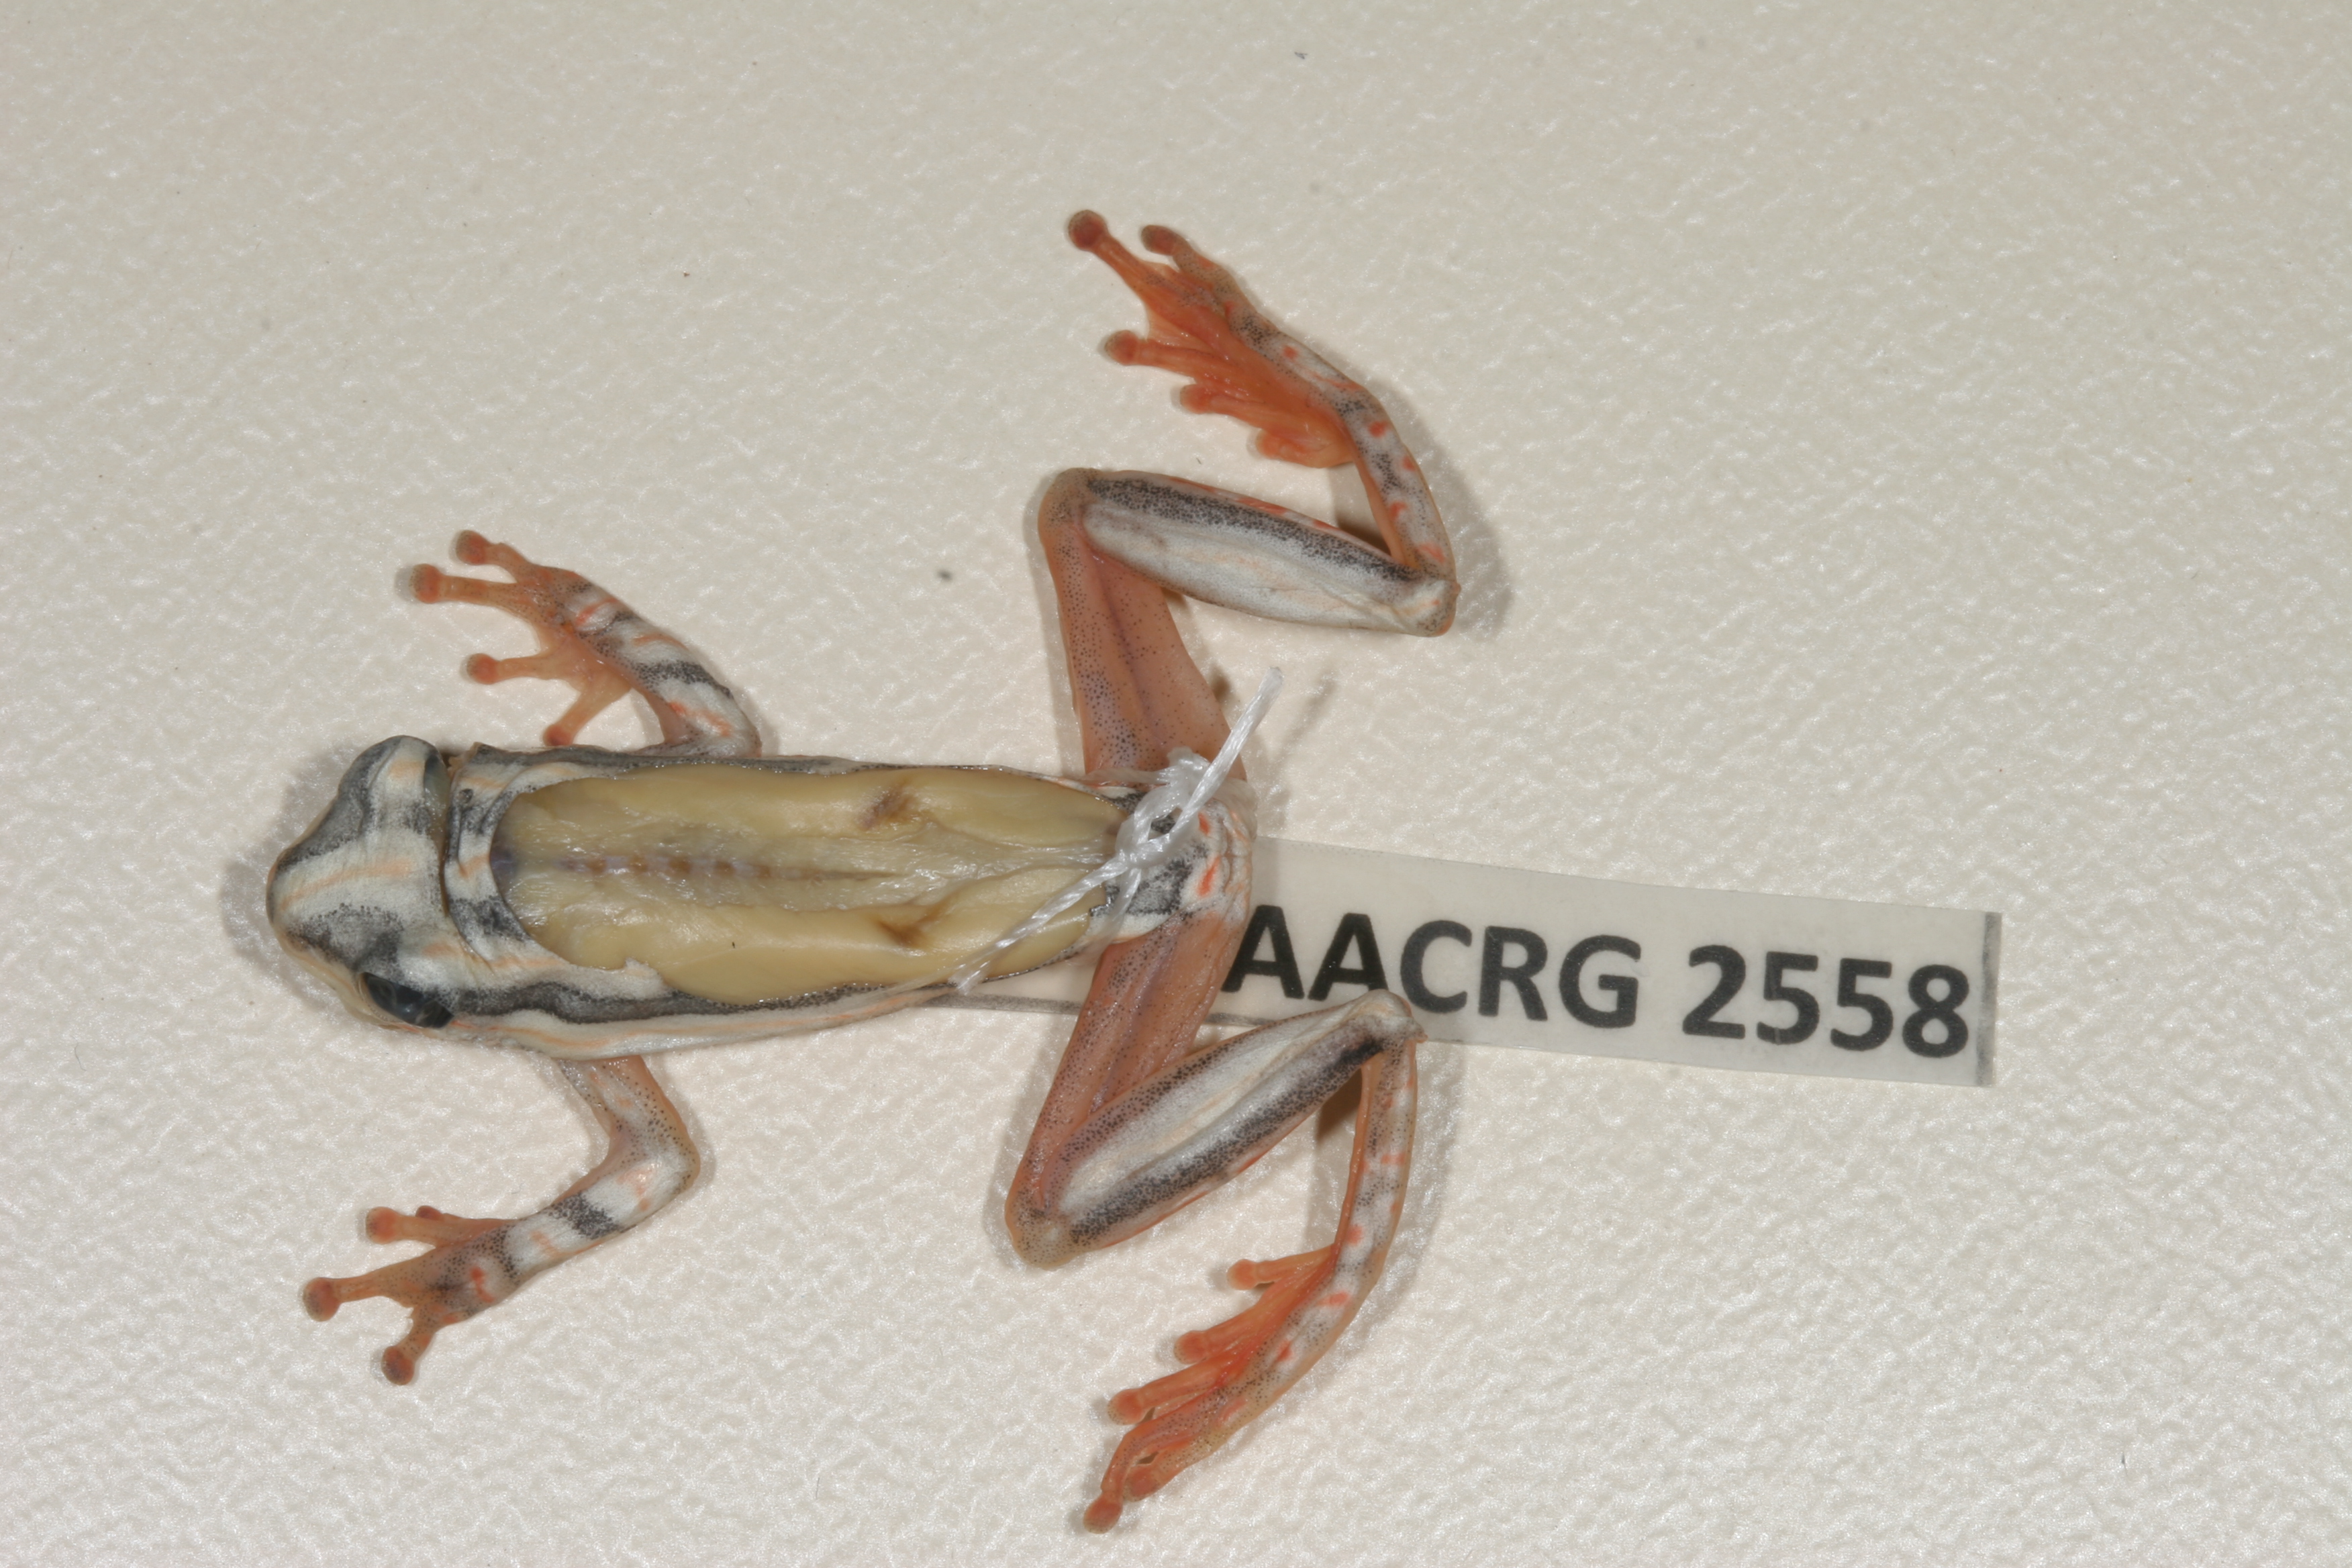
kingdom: Animalia
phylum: Chordata
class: Amphibia
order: Anura
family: Hyperoliidae
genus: Hyperolius
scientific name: Hyperolius marmoratus
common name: Painted reed frog
